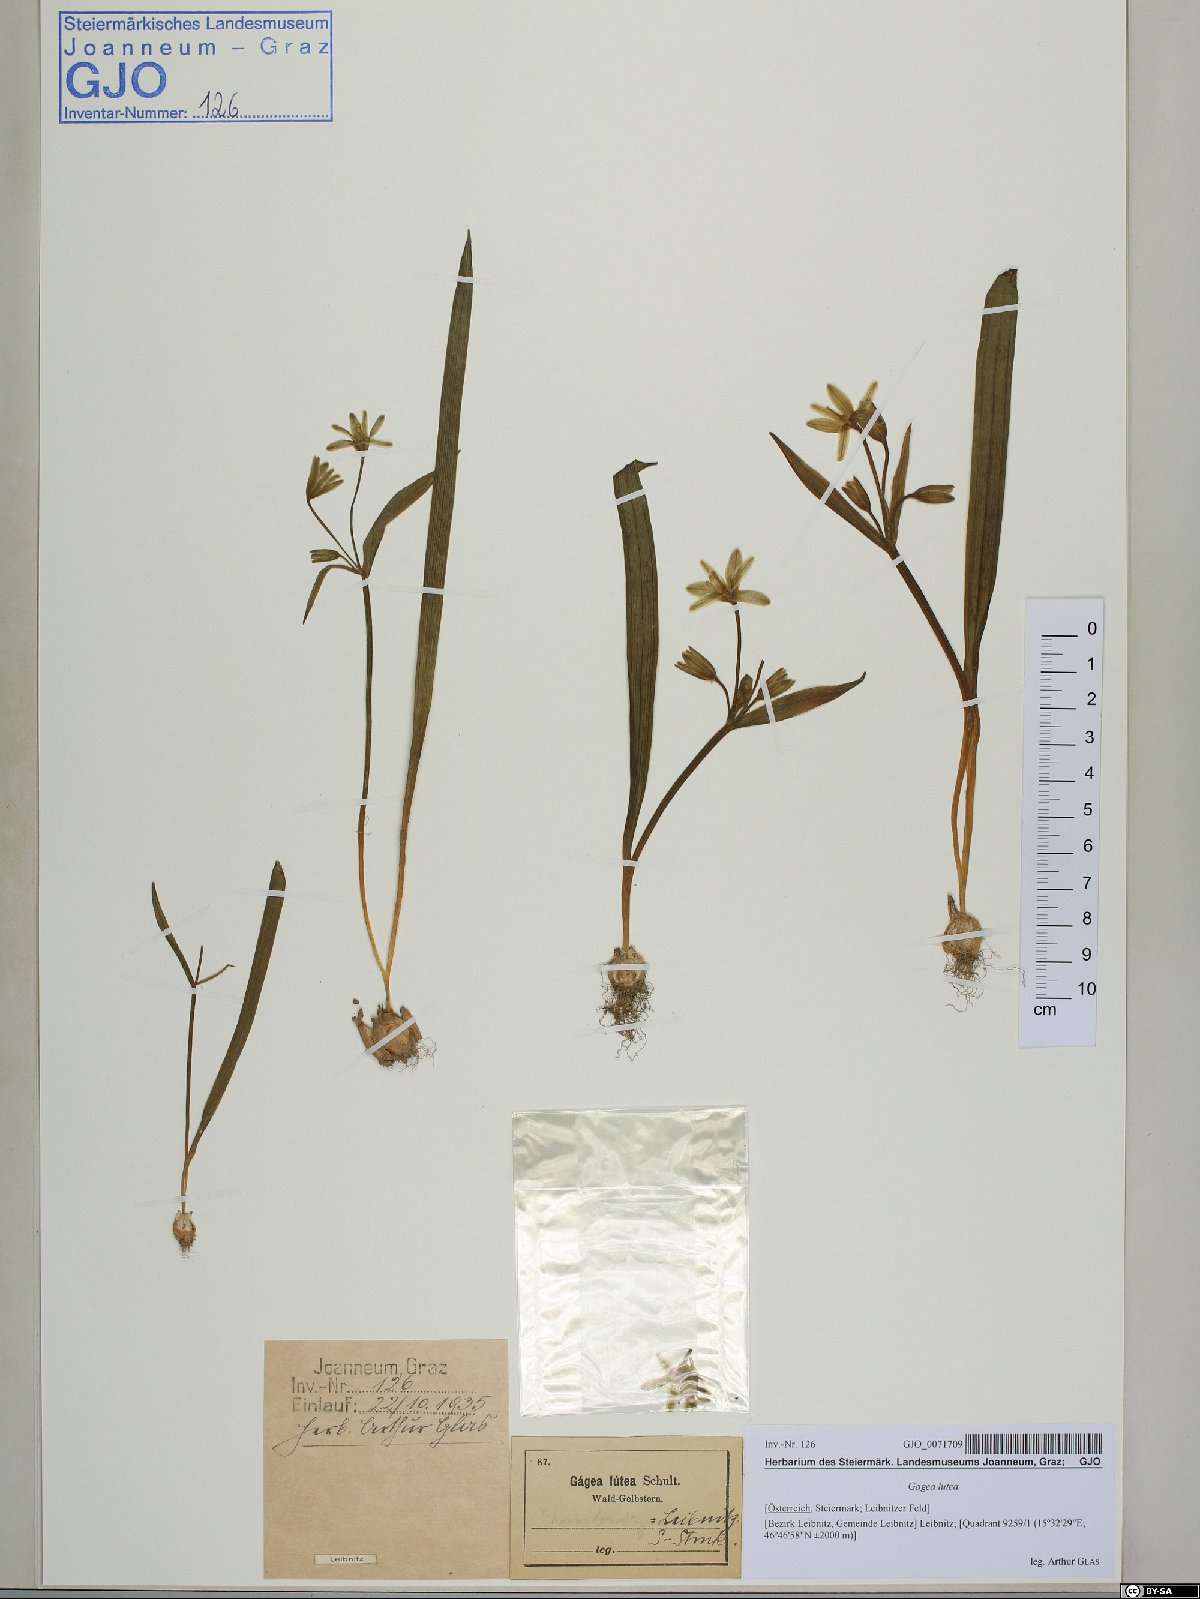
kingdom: Plantae
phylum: Tracheophyta
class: Liliopsida
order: Liliales
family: Liliaceae
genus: Gagea
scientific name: Gagea lutea
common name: Yellow star-of-bethlehem
